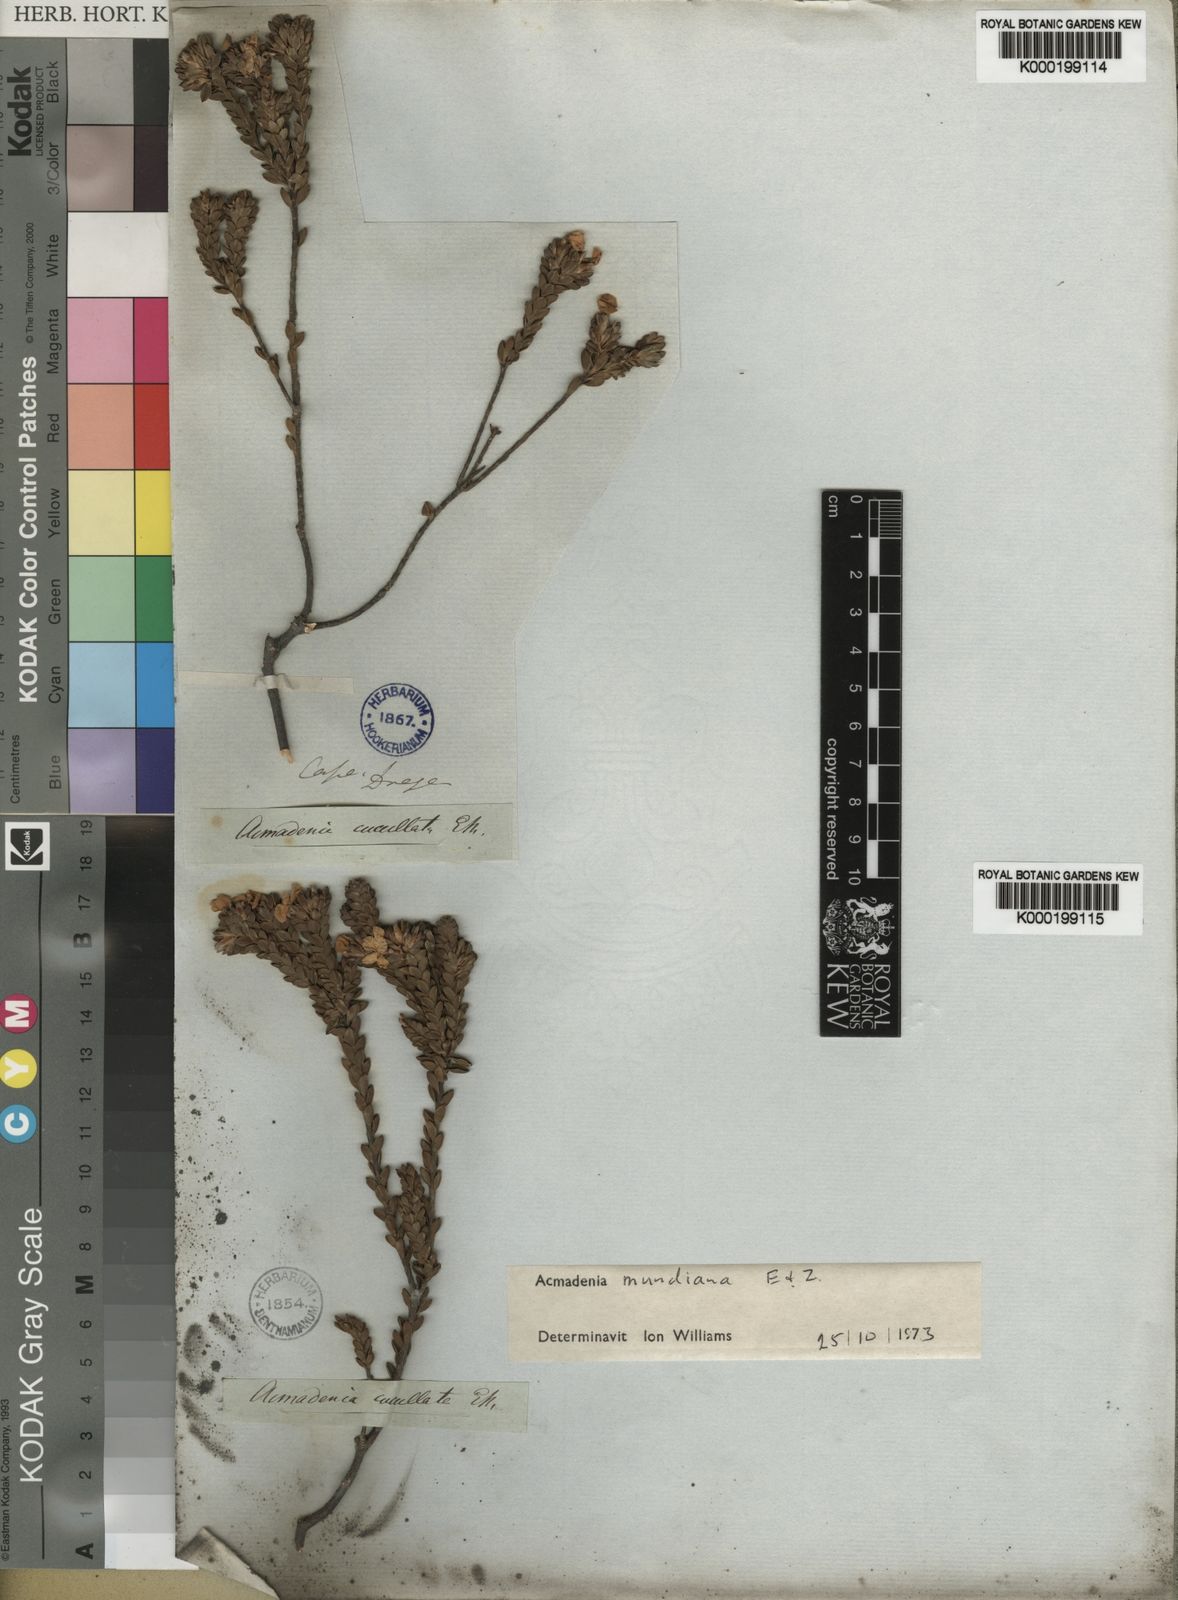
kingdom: Plantae
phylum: Tracheophyta
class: Magnoliopsida
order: Sapindales
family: Rutaceae
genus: Acmadenia
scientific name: Acmadenia mundiana
